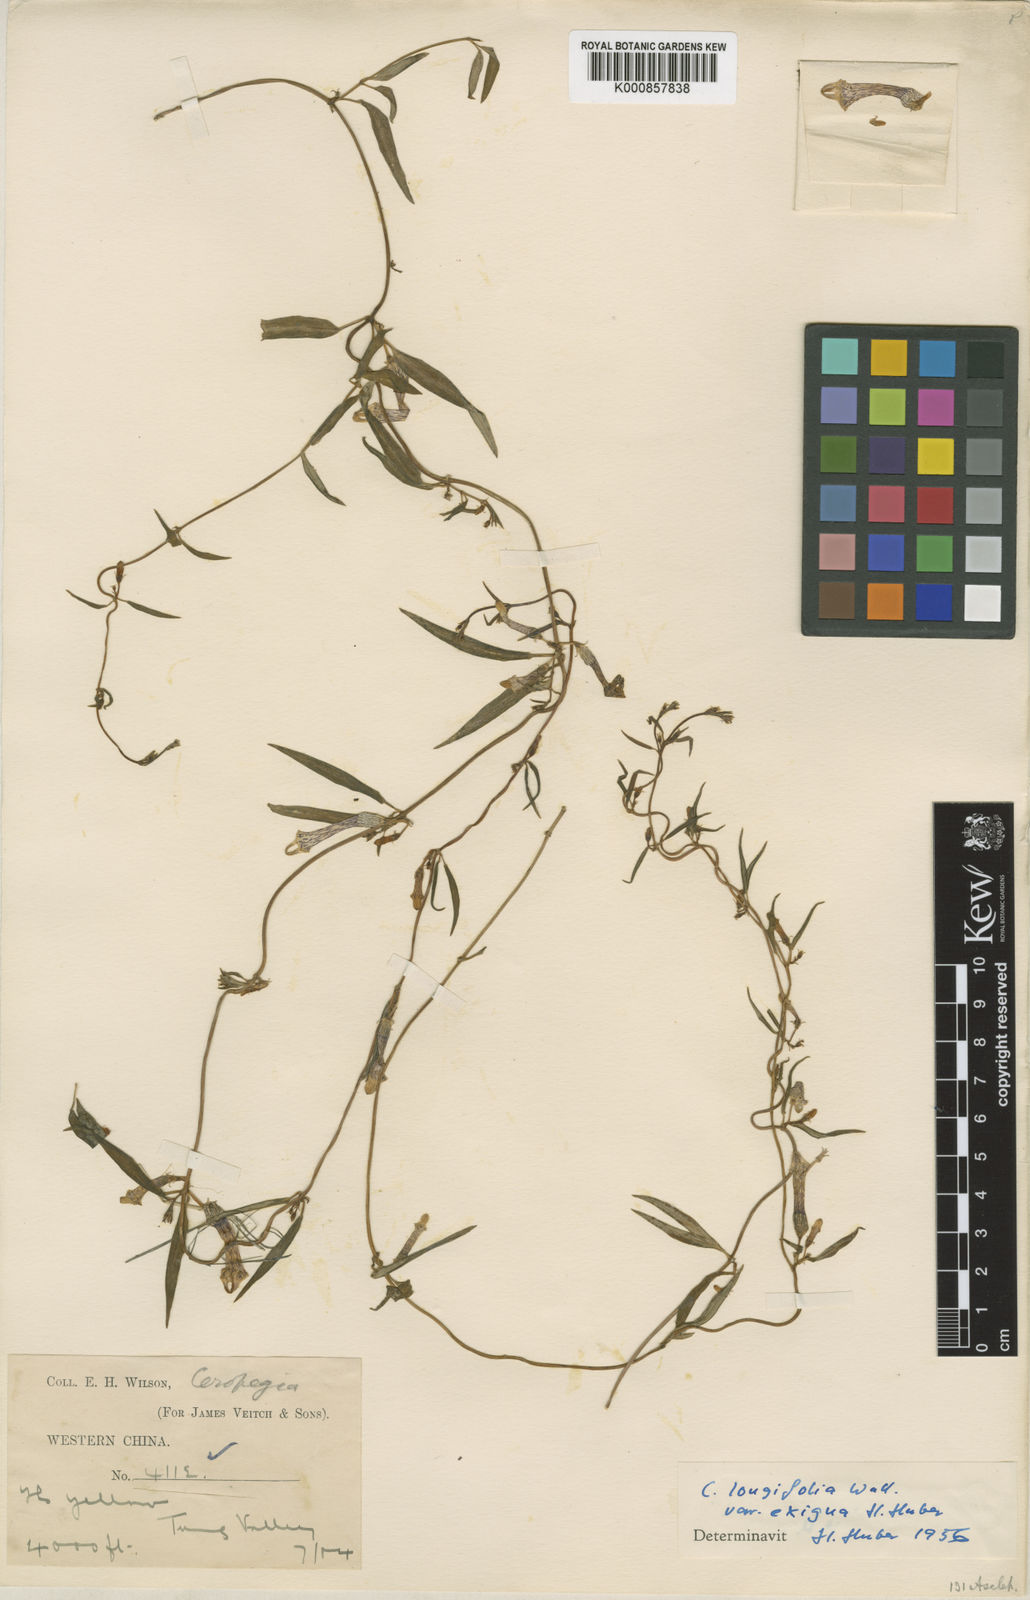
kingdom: Plantae
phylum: Tracheophyta
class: Magnoliopsida
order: Gentianales
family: Apocynaceae
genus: Ceropegia
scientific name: Ceropegia longifolia
